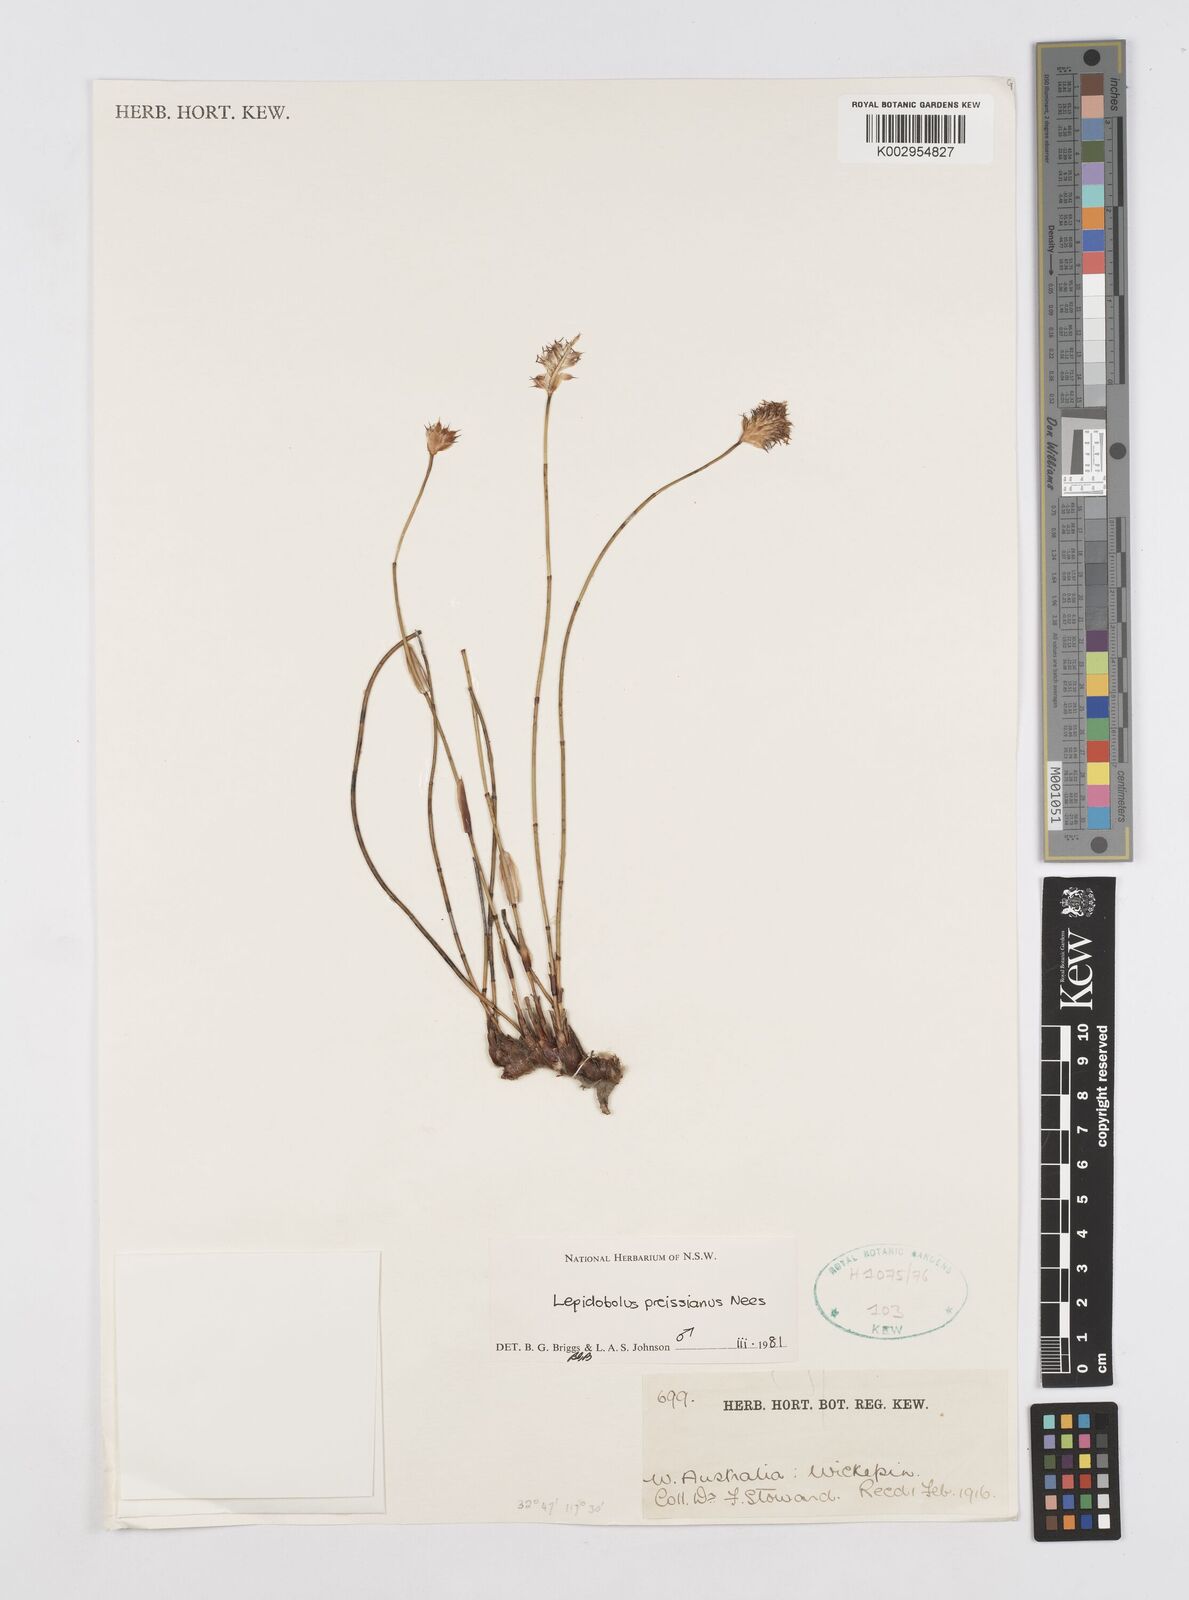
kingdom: Plantae
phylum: Tracheophyta
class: Liliopsida
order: Poales
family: Restionaceae
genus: Lepidobolus
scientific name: Lepidobolus preissianus
